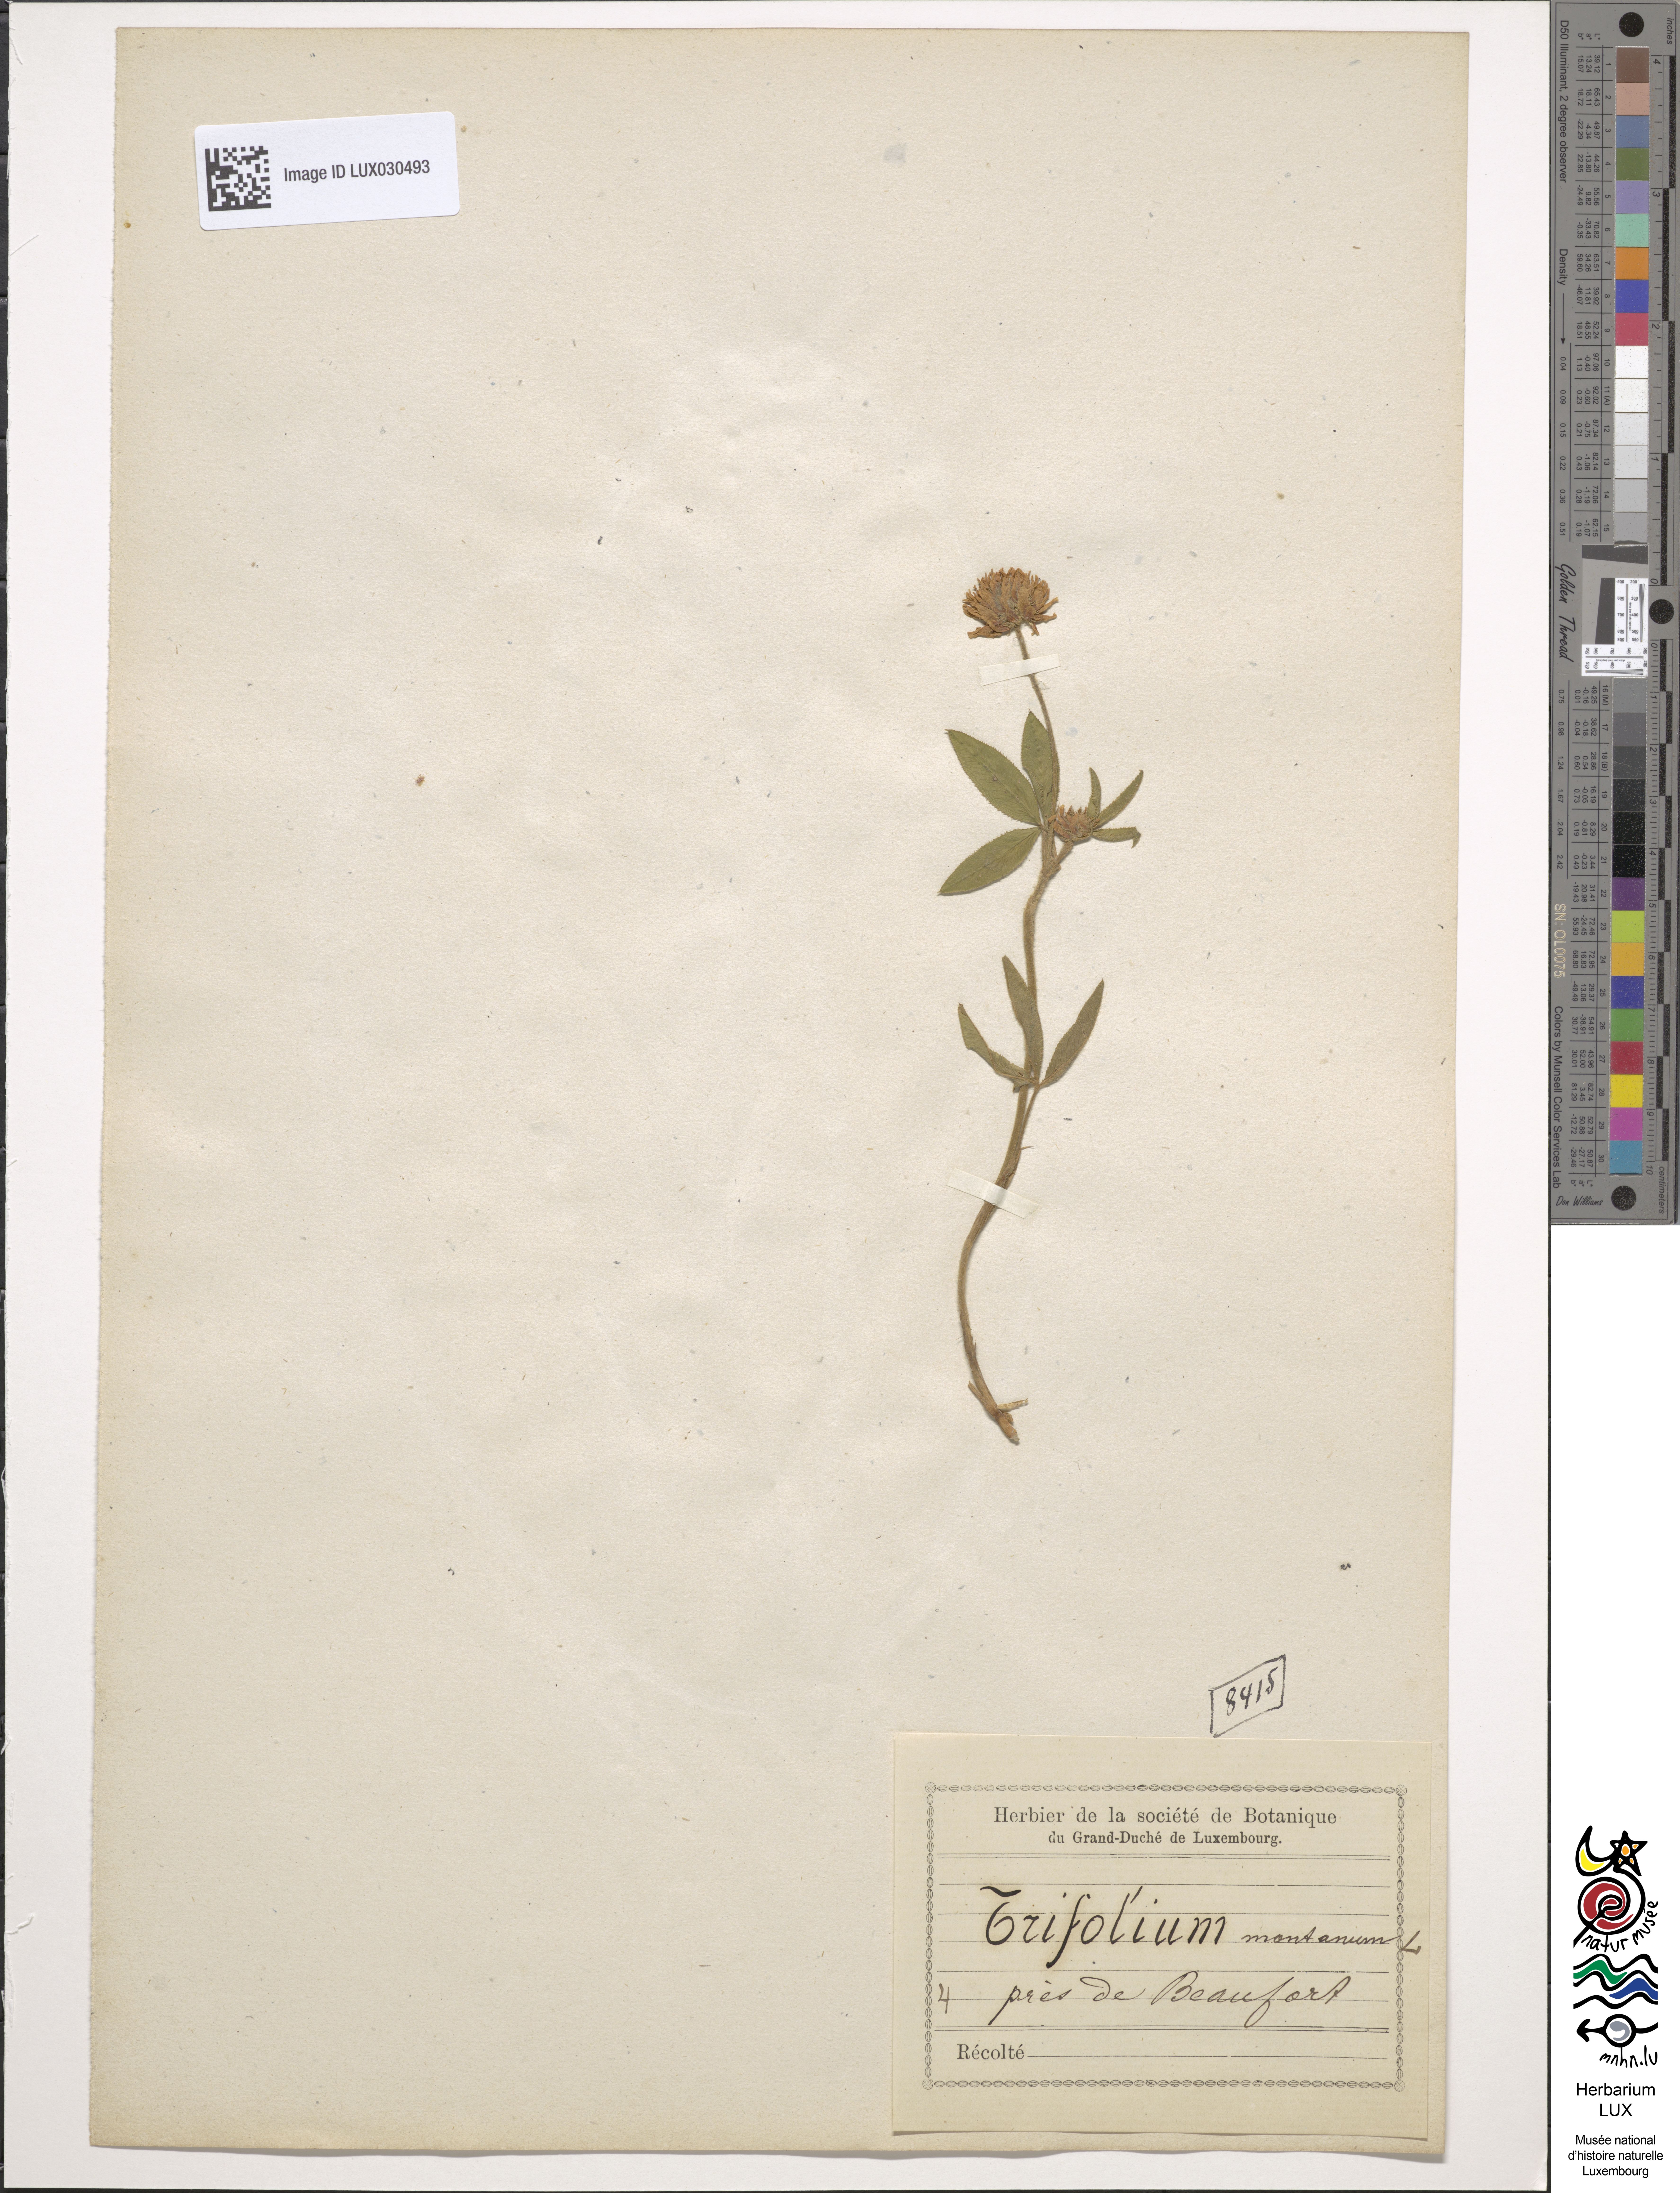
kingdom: Plantae
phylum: Tracheophyta
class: Magnoliopsida
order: Fabales
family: Fabaceae
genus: Trifolium
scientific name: Trifolium montanum
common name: Mountain clover
